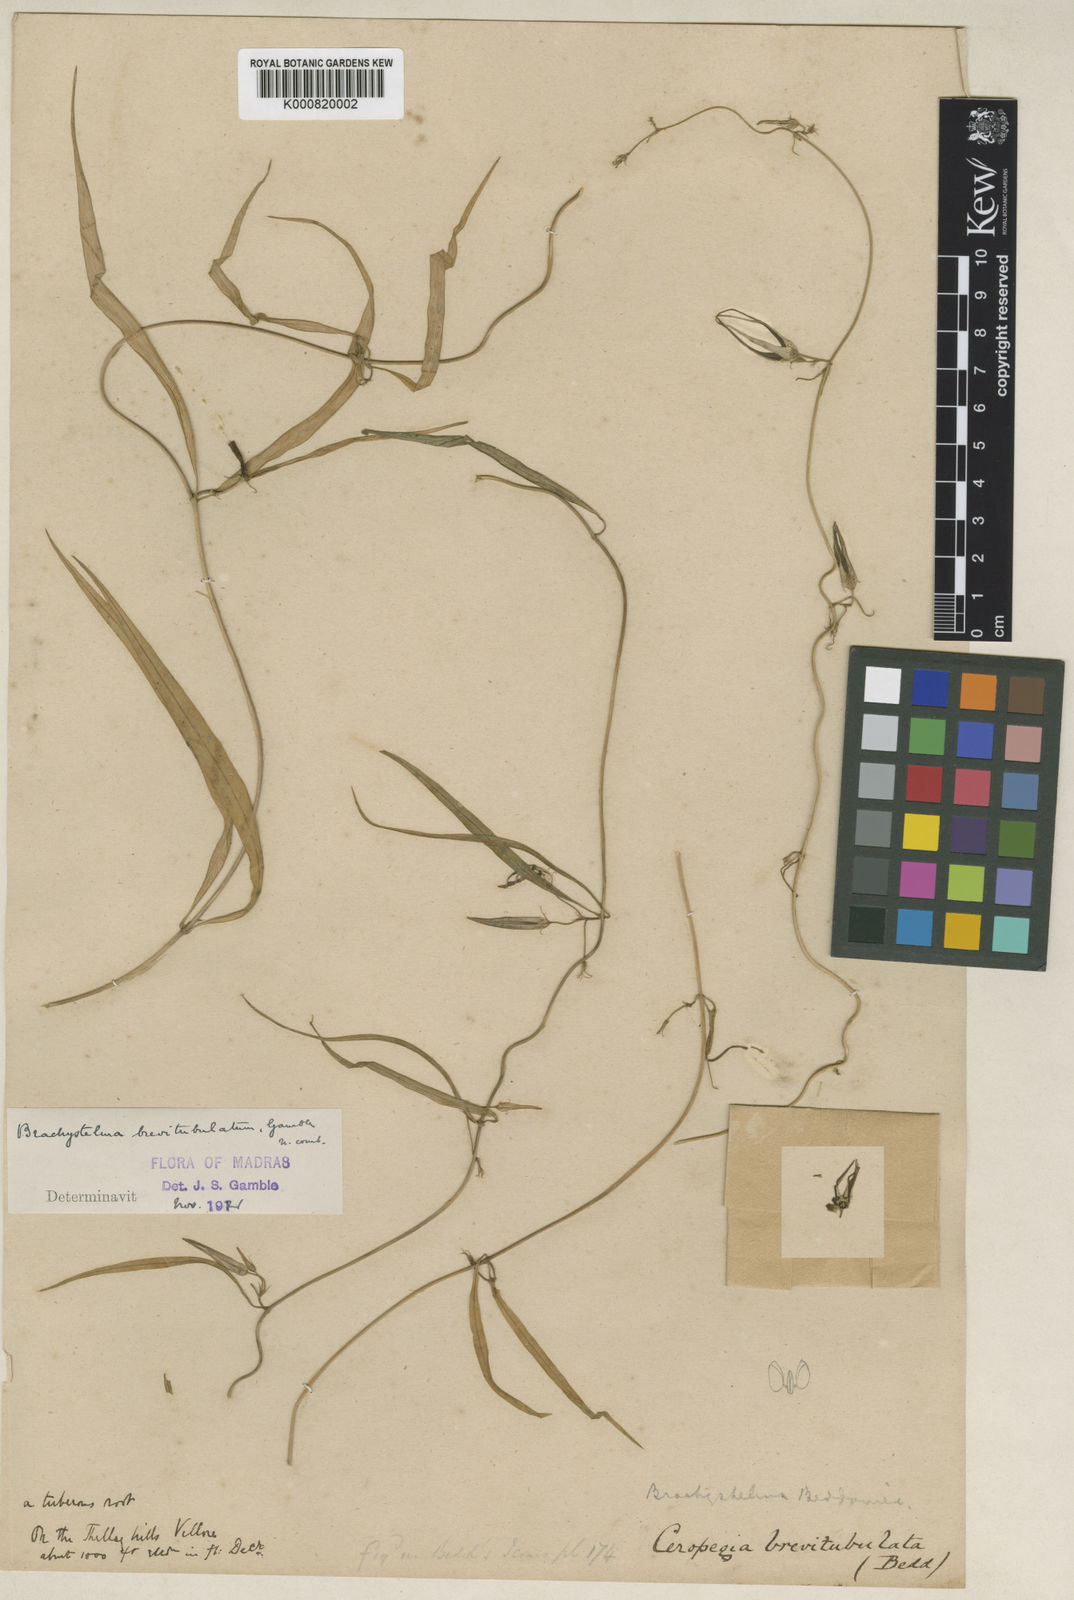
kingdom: Plantae
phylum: Tracheophyta
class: Magnoliopsida
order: Gentianales
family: Apocynaceae
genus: Ceropegia
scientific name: Ceropegia brevitubulata
